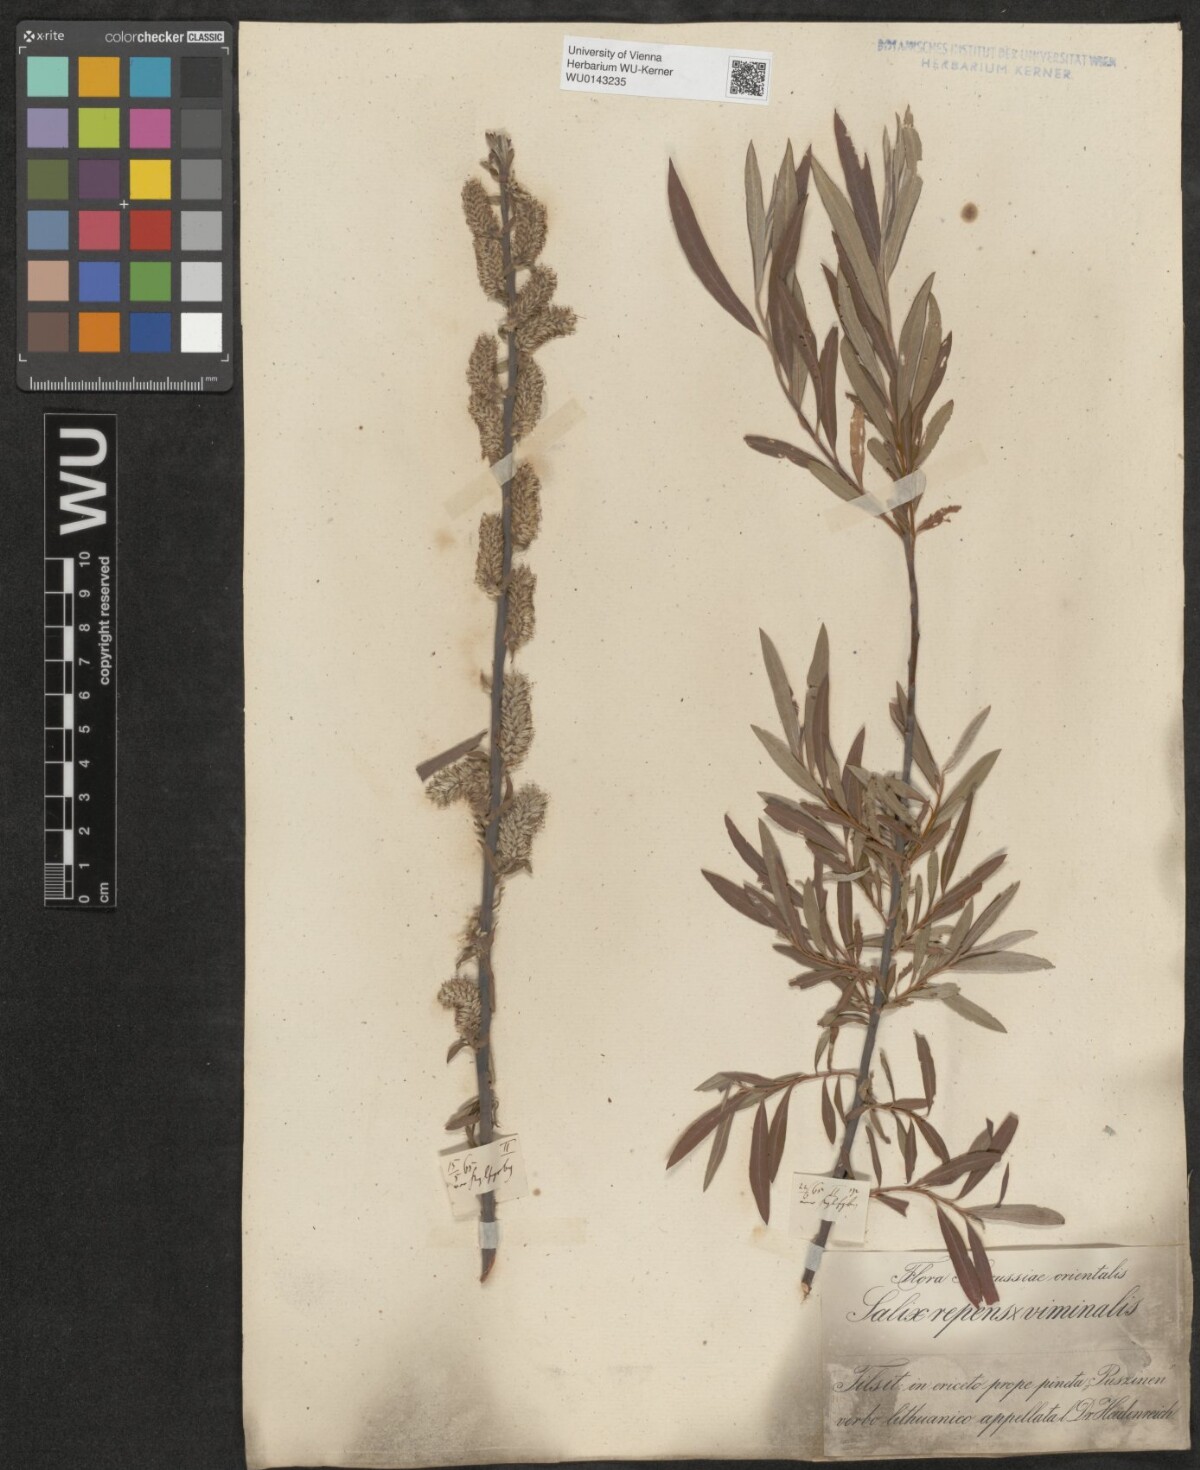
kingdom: Plantae
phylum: Tracheophyta
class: Magnoliopsida
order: Malpighiales
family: Salicaceae
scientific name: Salicaceae
